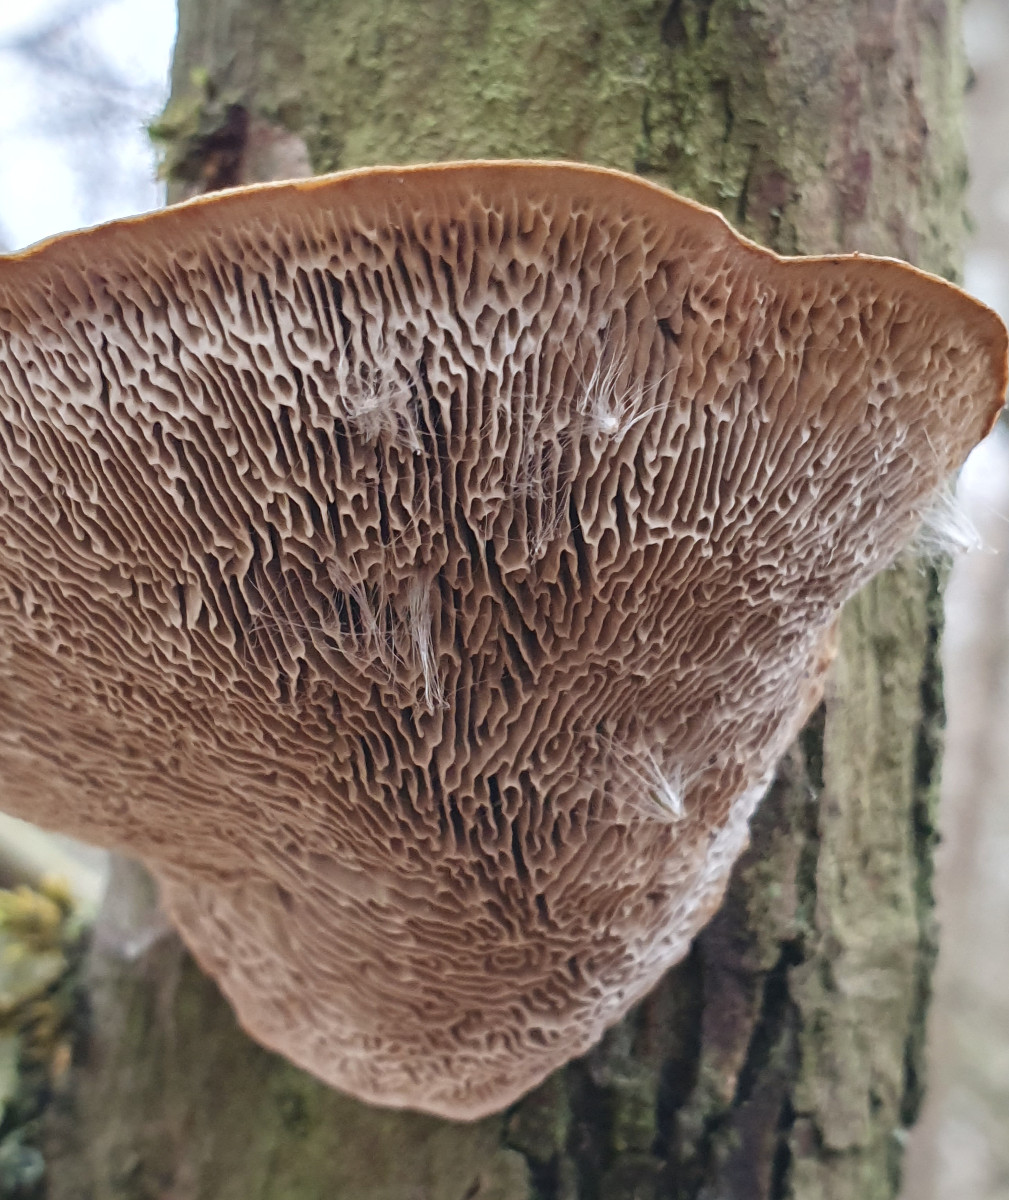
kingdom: Fungi
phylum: Basidiomycota
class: Agaricomycetes
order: Polyporales
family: Polyporaceae
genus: Daedaleopsis
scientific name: Daedaleopsis confragosa
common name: rødmende læderporesvamp
